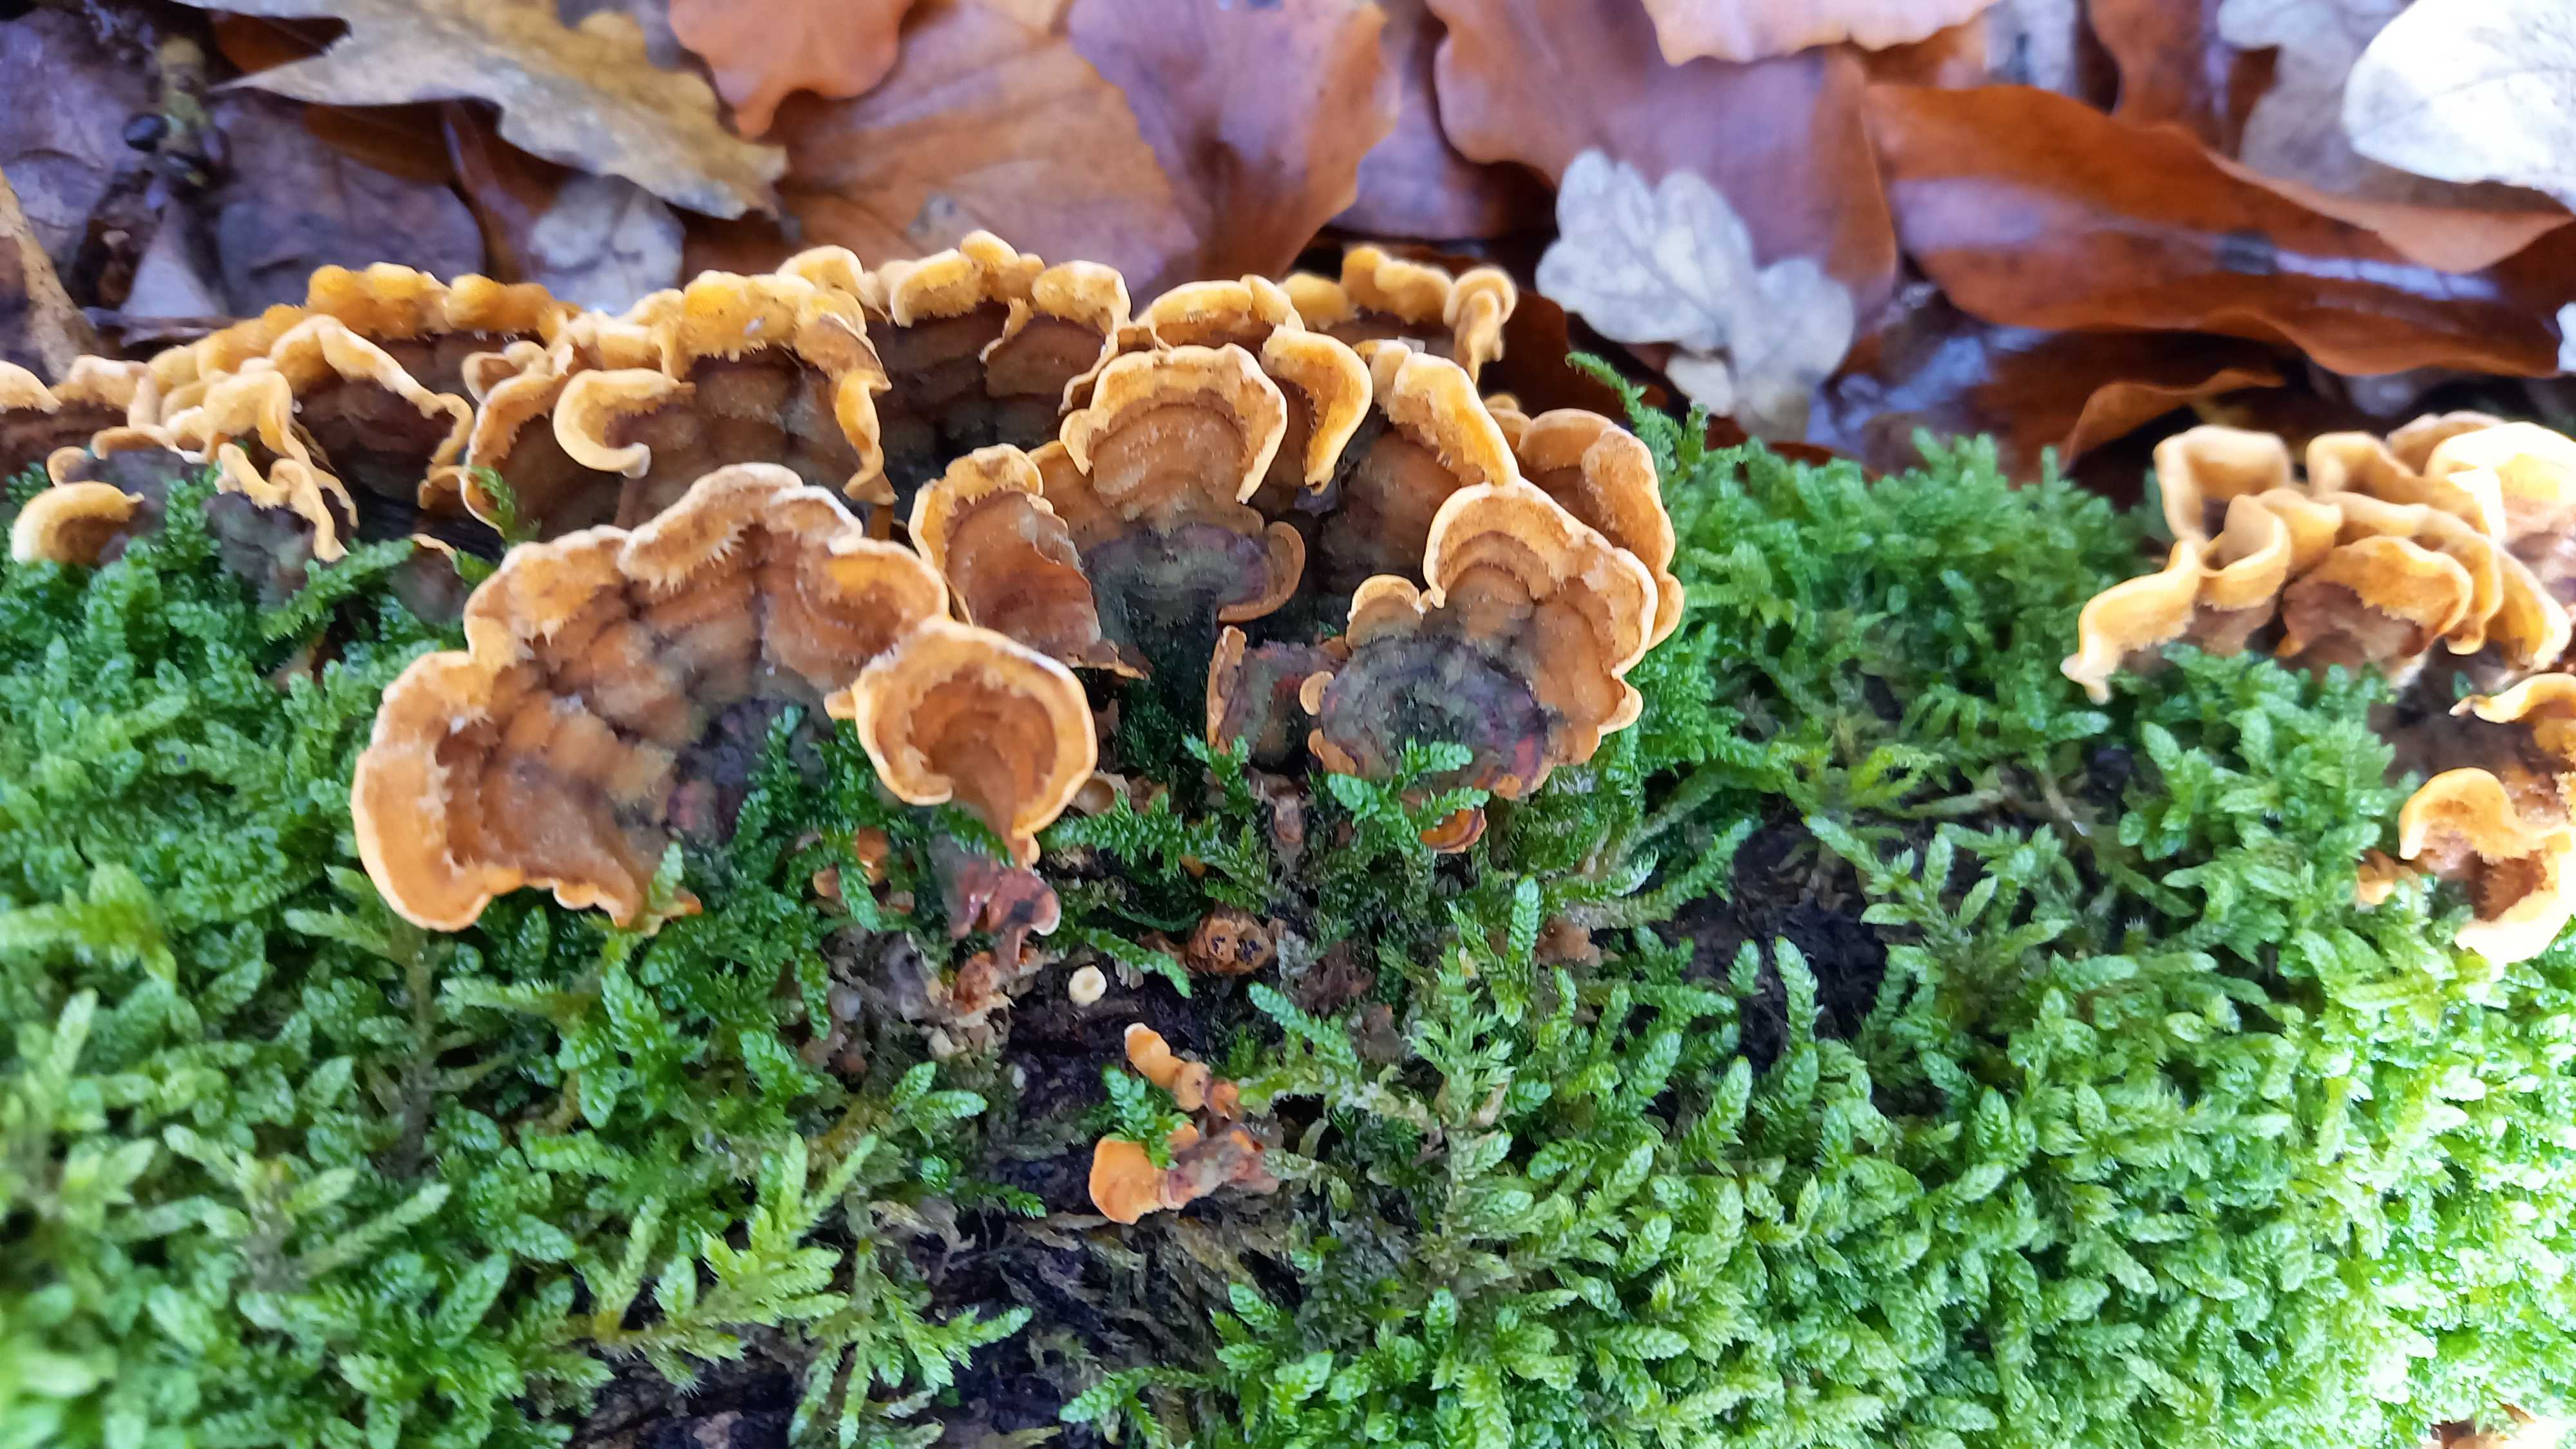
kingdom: Fungi
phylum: Basidiomycota
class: Agaricomycetes
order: Russulales
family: Stereaceae
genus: Stereum
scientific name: Stereum hirsutum
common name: håret lædersvamp
